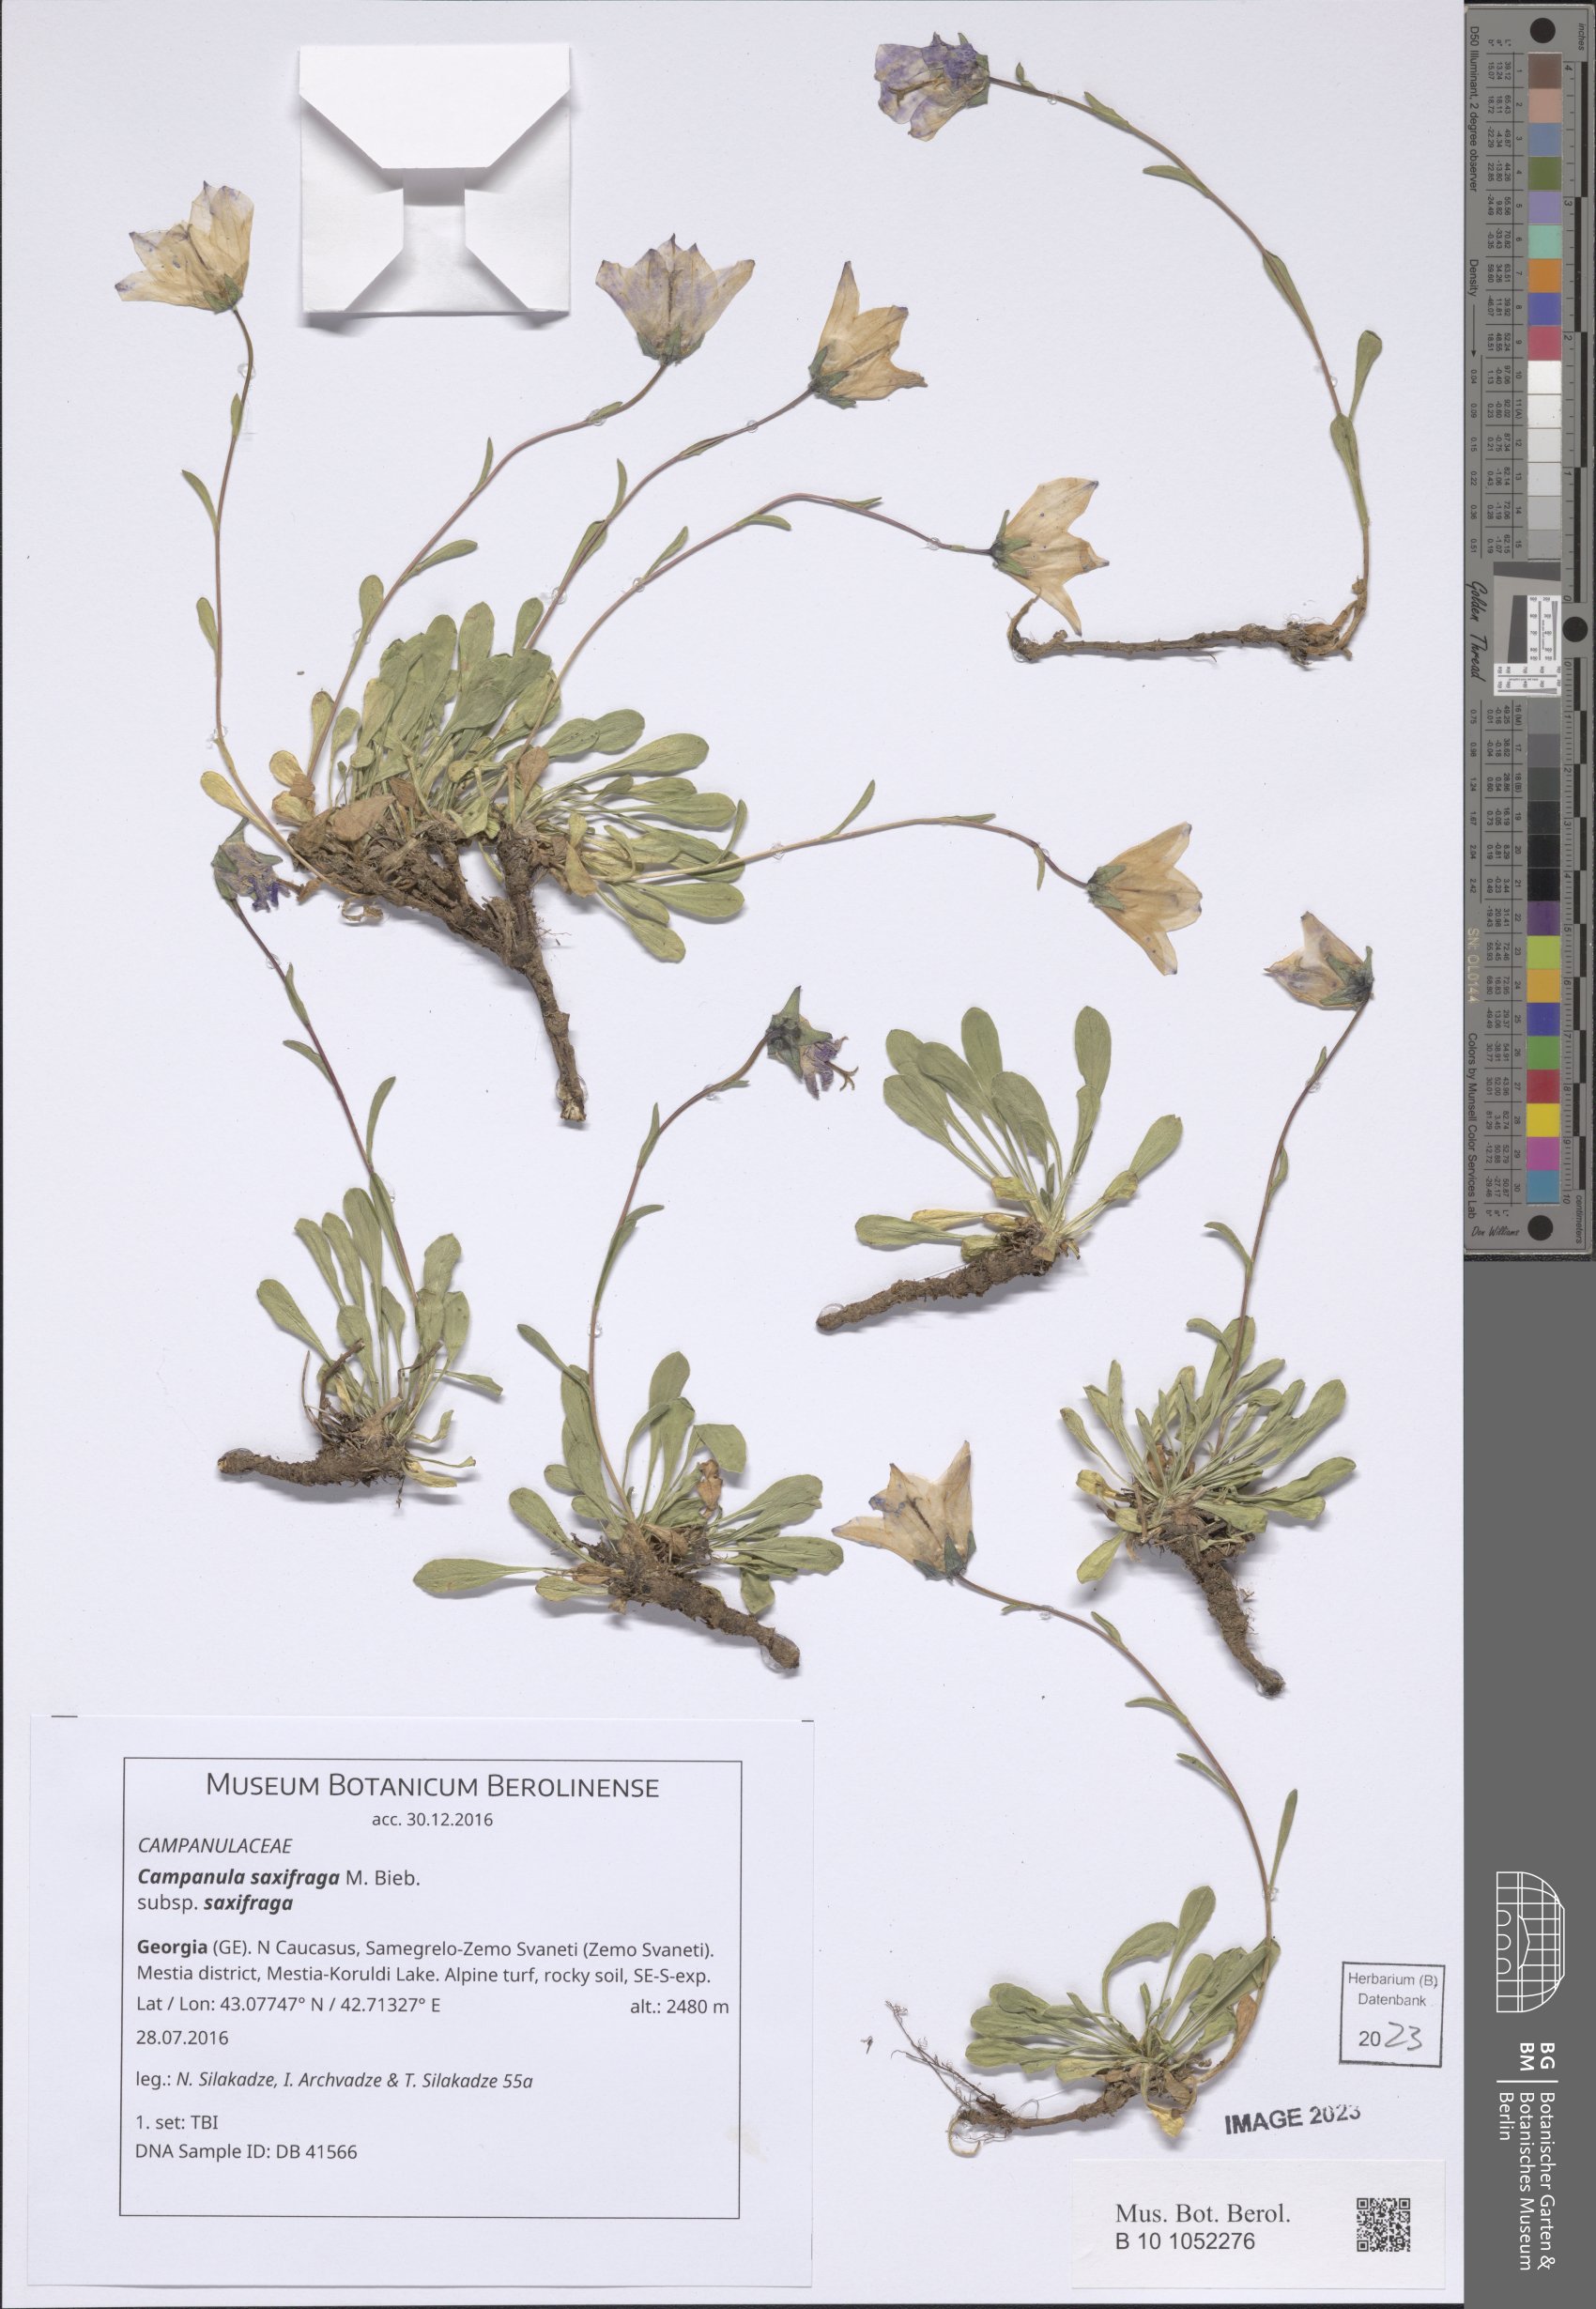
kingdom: Plantae
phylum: Tracheophyta
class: Magnoliopsida
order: Asterales
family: Campanulaceae
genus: Campanula
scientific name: Campanula saxifraga
